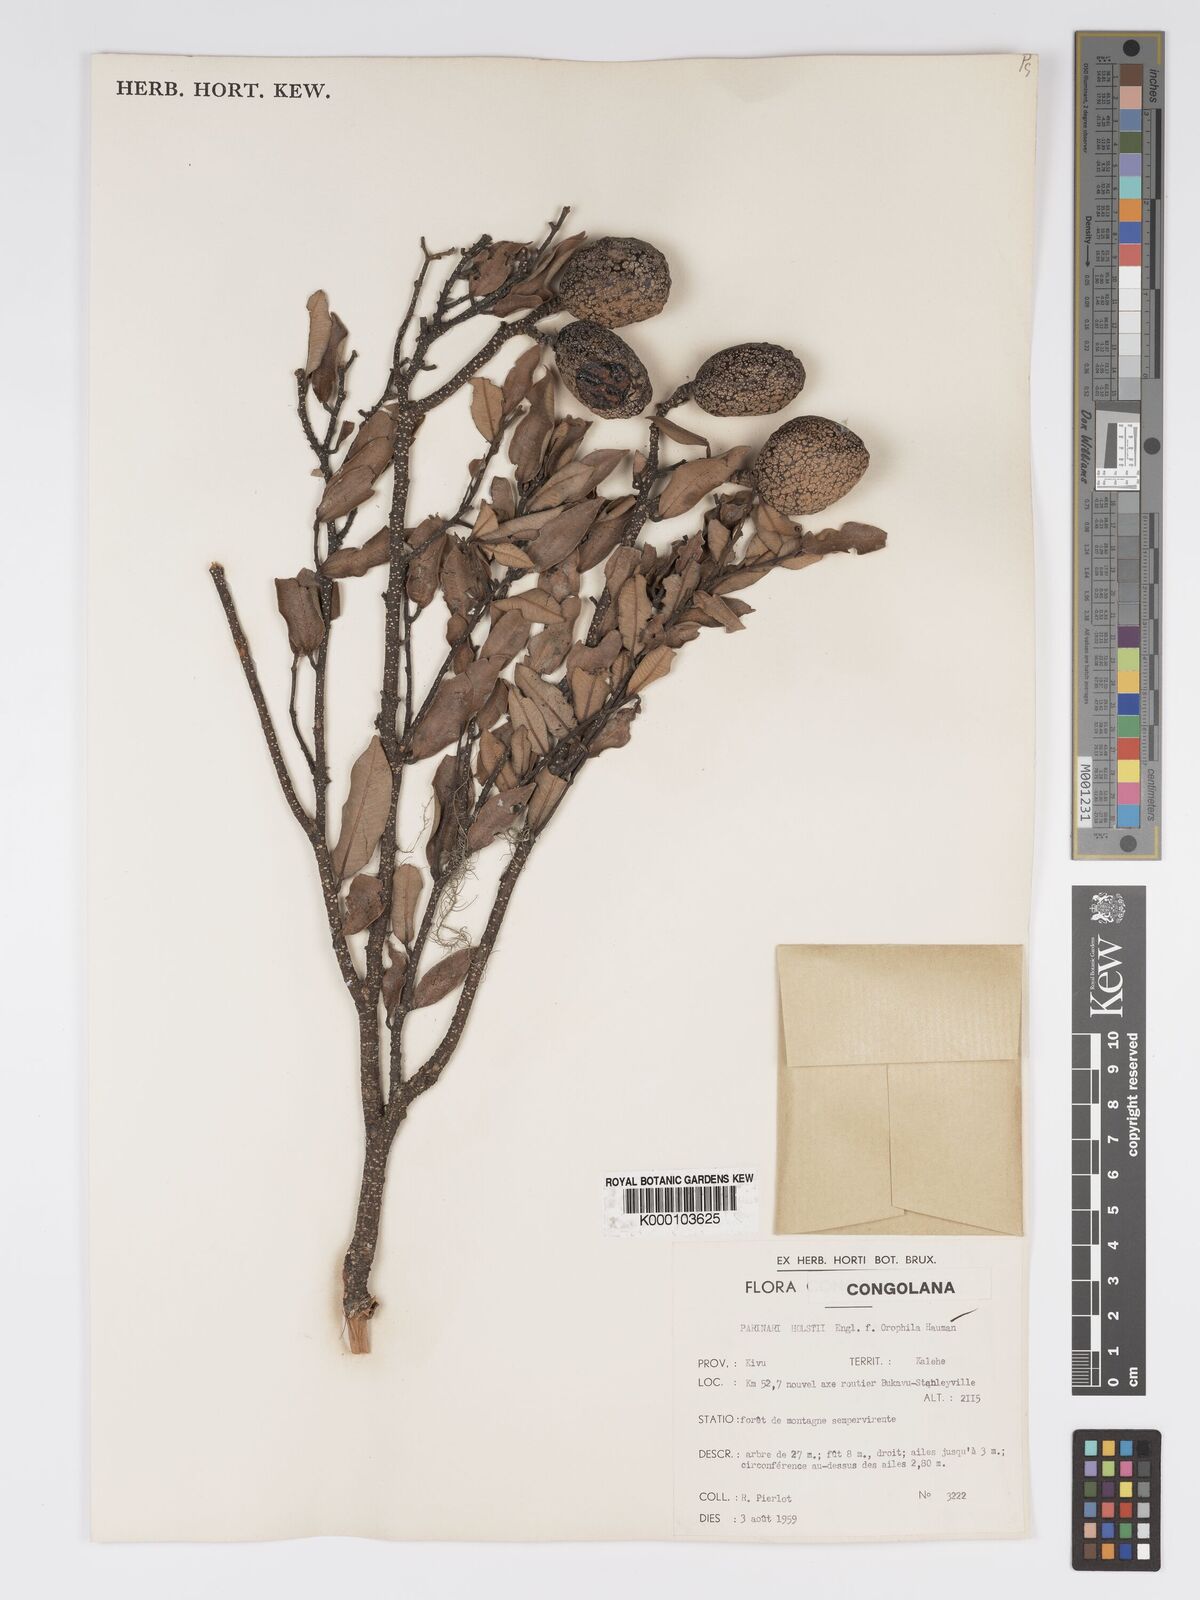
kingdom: Plantae
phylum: Tracheophyta
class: Magnoliopsida
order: Malpighiales
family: Chrysobalanaceae
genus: Parinari
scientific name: Parinari excelsa
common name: Guinea-plum
